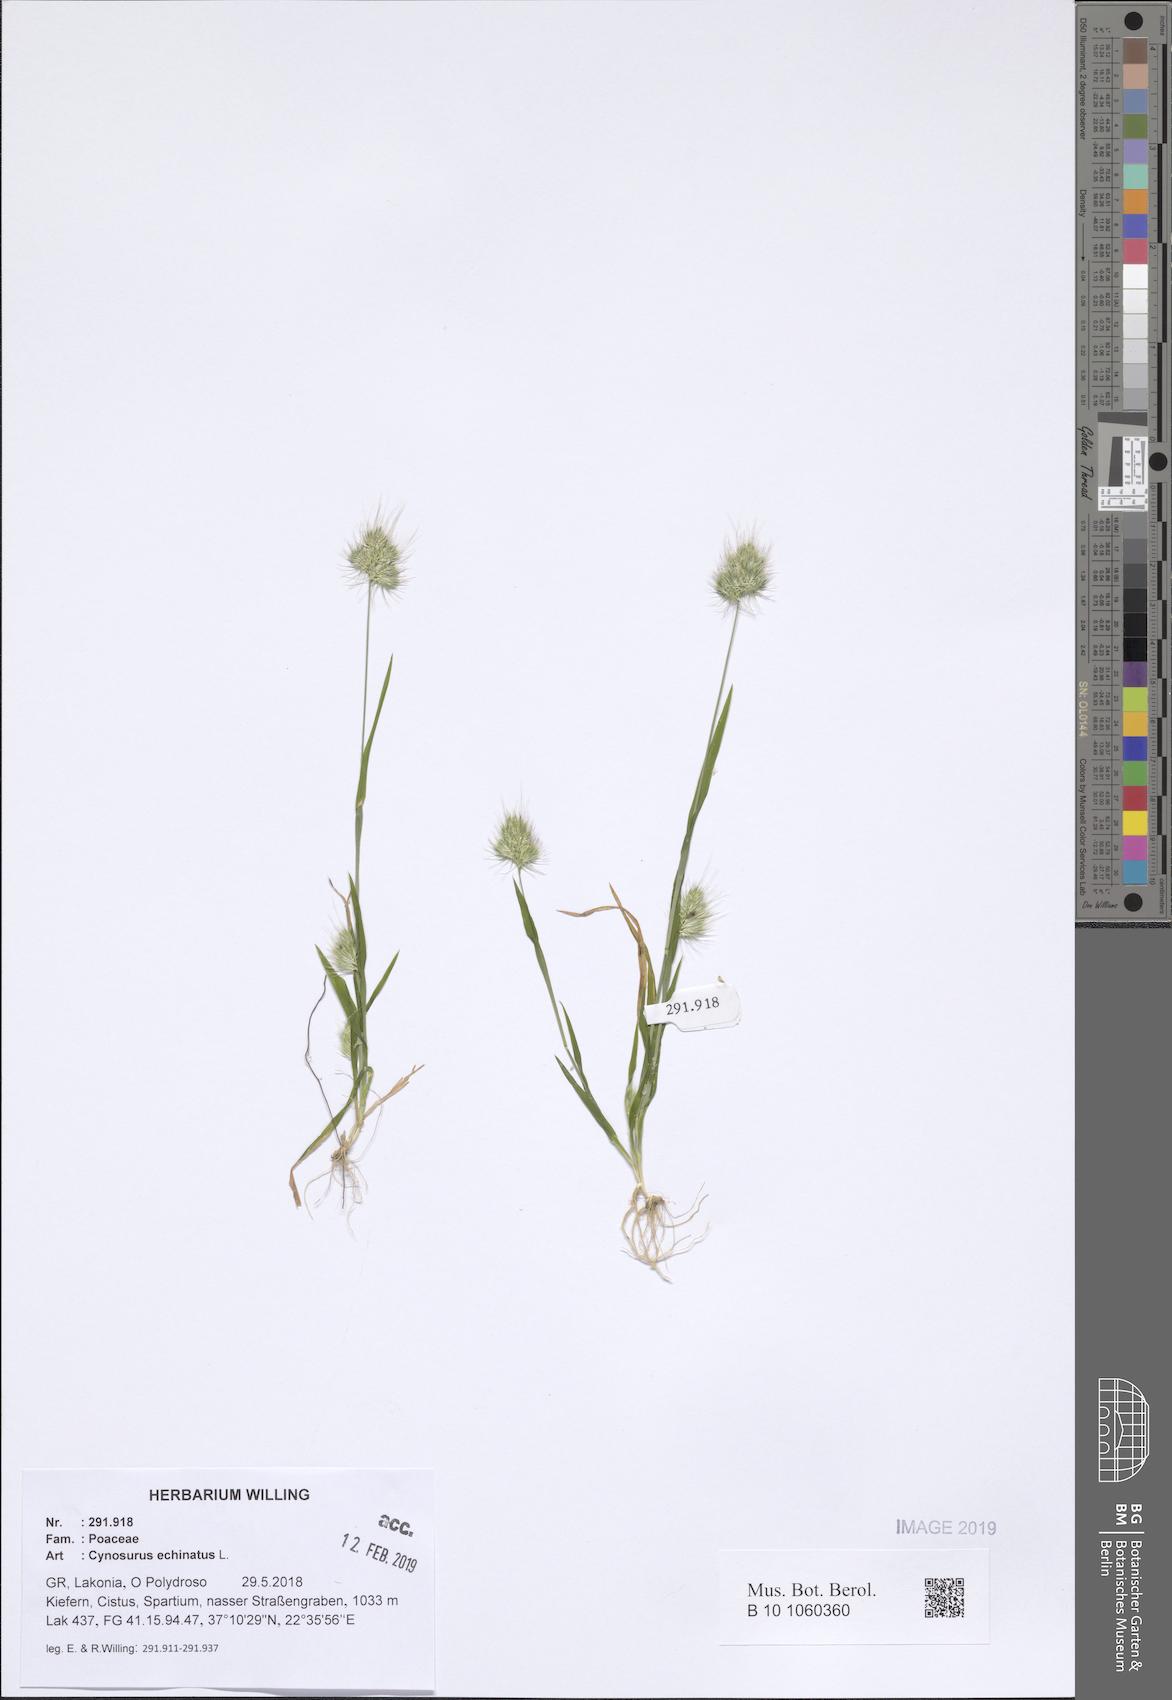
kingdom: Plantae
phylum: Tracheophyta
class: Liliopsida
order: Poales
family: Poaceae
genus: Cynosurus
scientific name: Cynosurus echinatus
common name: Rough dog's-tail
